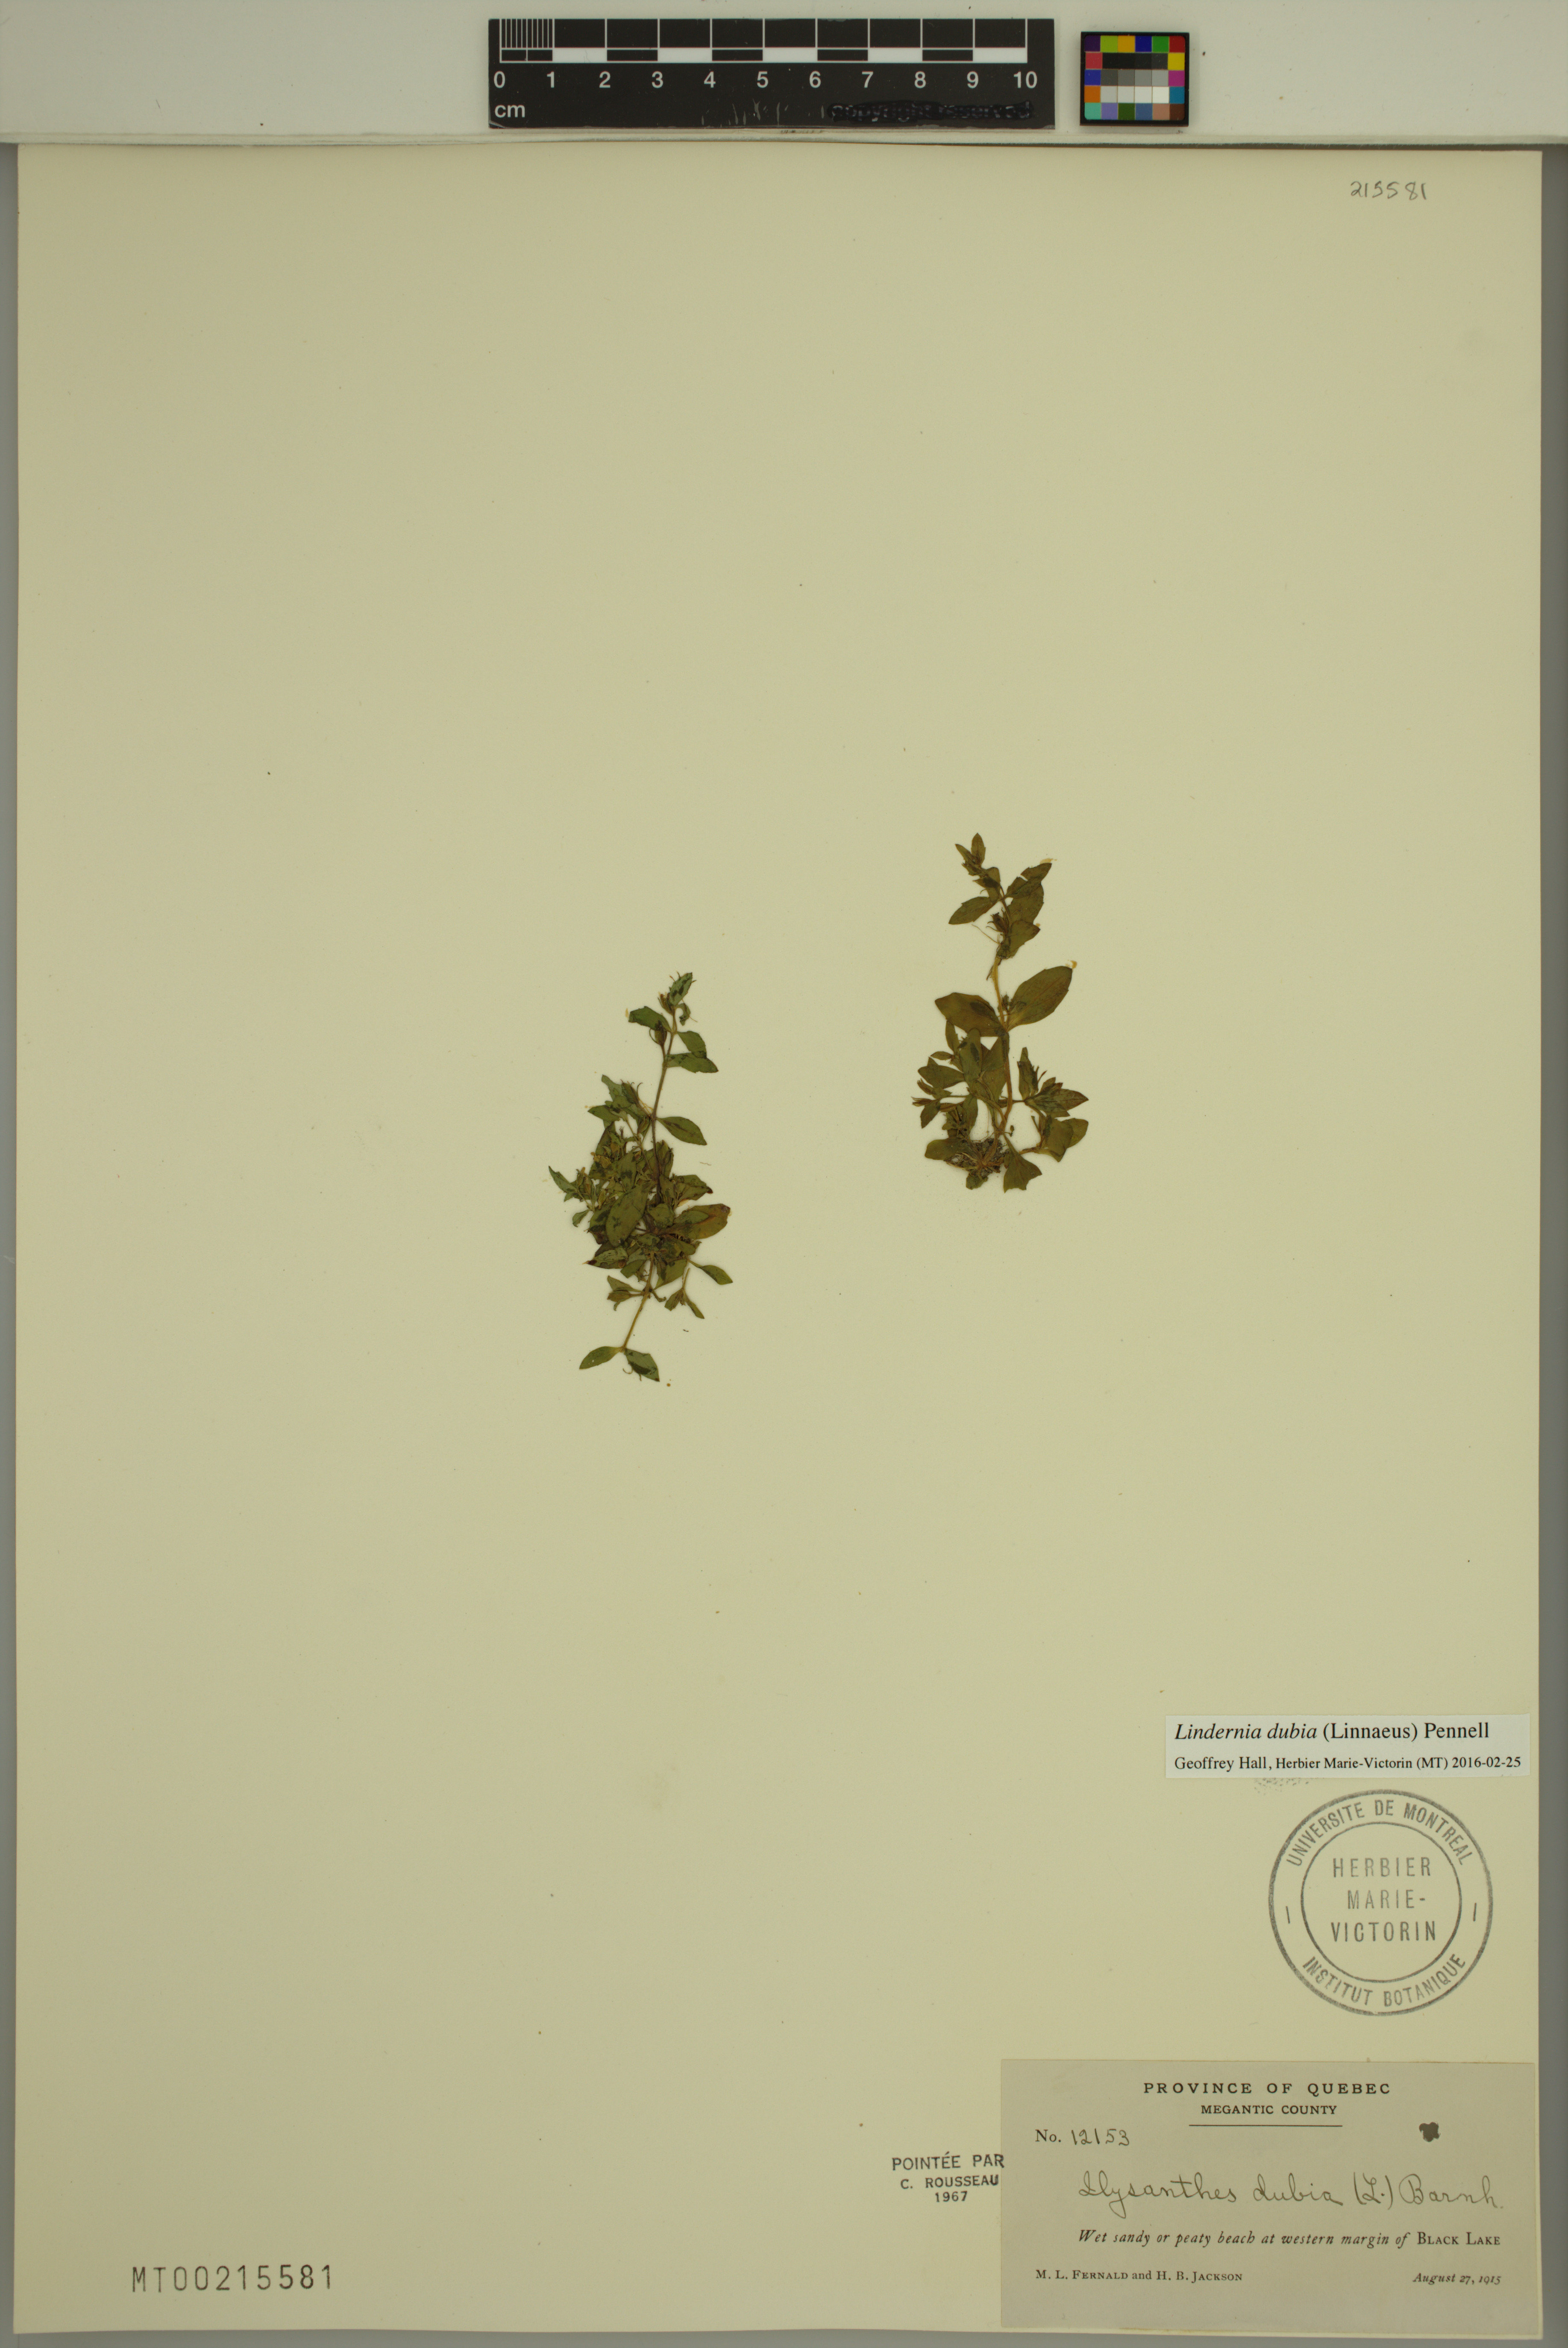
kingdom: Plantae
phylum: Tracheophyta
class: Magnoliopsida
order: Lamiales
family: Linderniaceae
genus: Lindernia
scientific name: Lindernia dubia
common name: Annual false pimpernel
